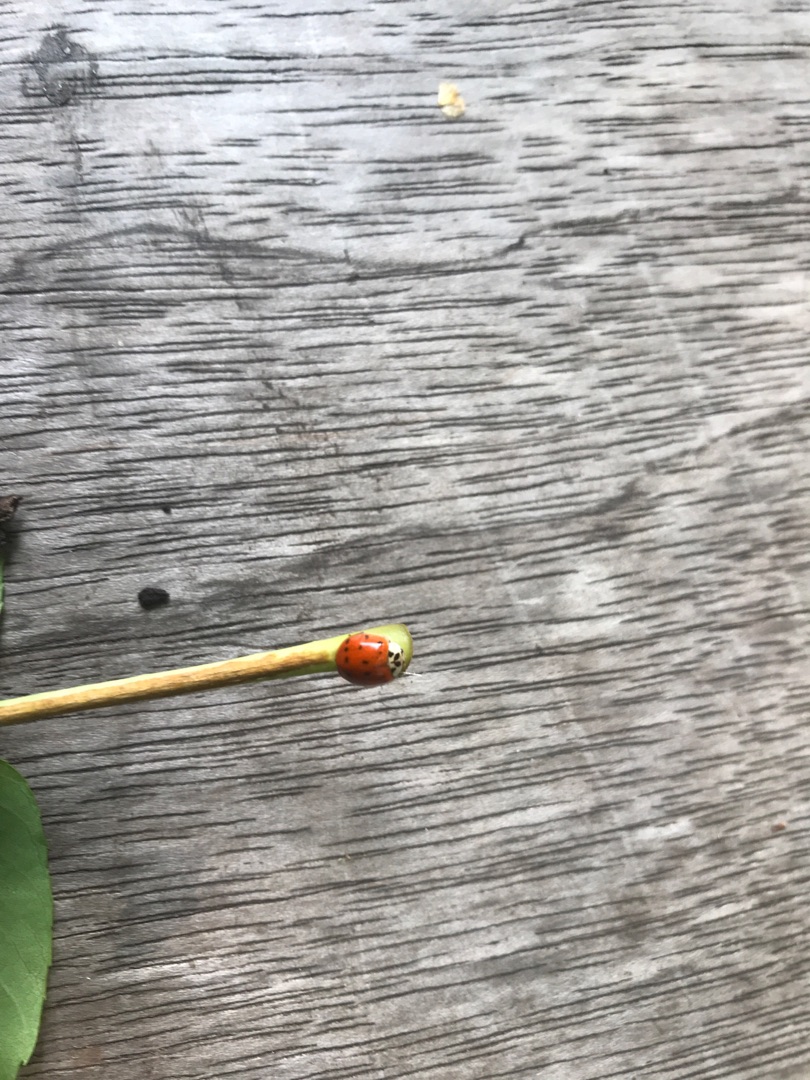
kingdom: Animalia
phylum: Arthropoda
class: Insecta
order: Coleoptera
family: Coccinellidae
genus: Harmonia
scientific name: Harmonia axyridis
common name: Harlekinmariehøne
